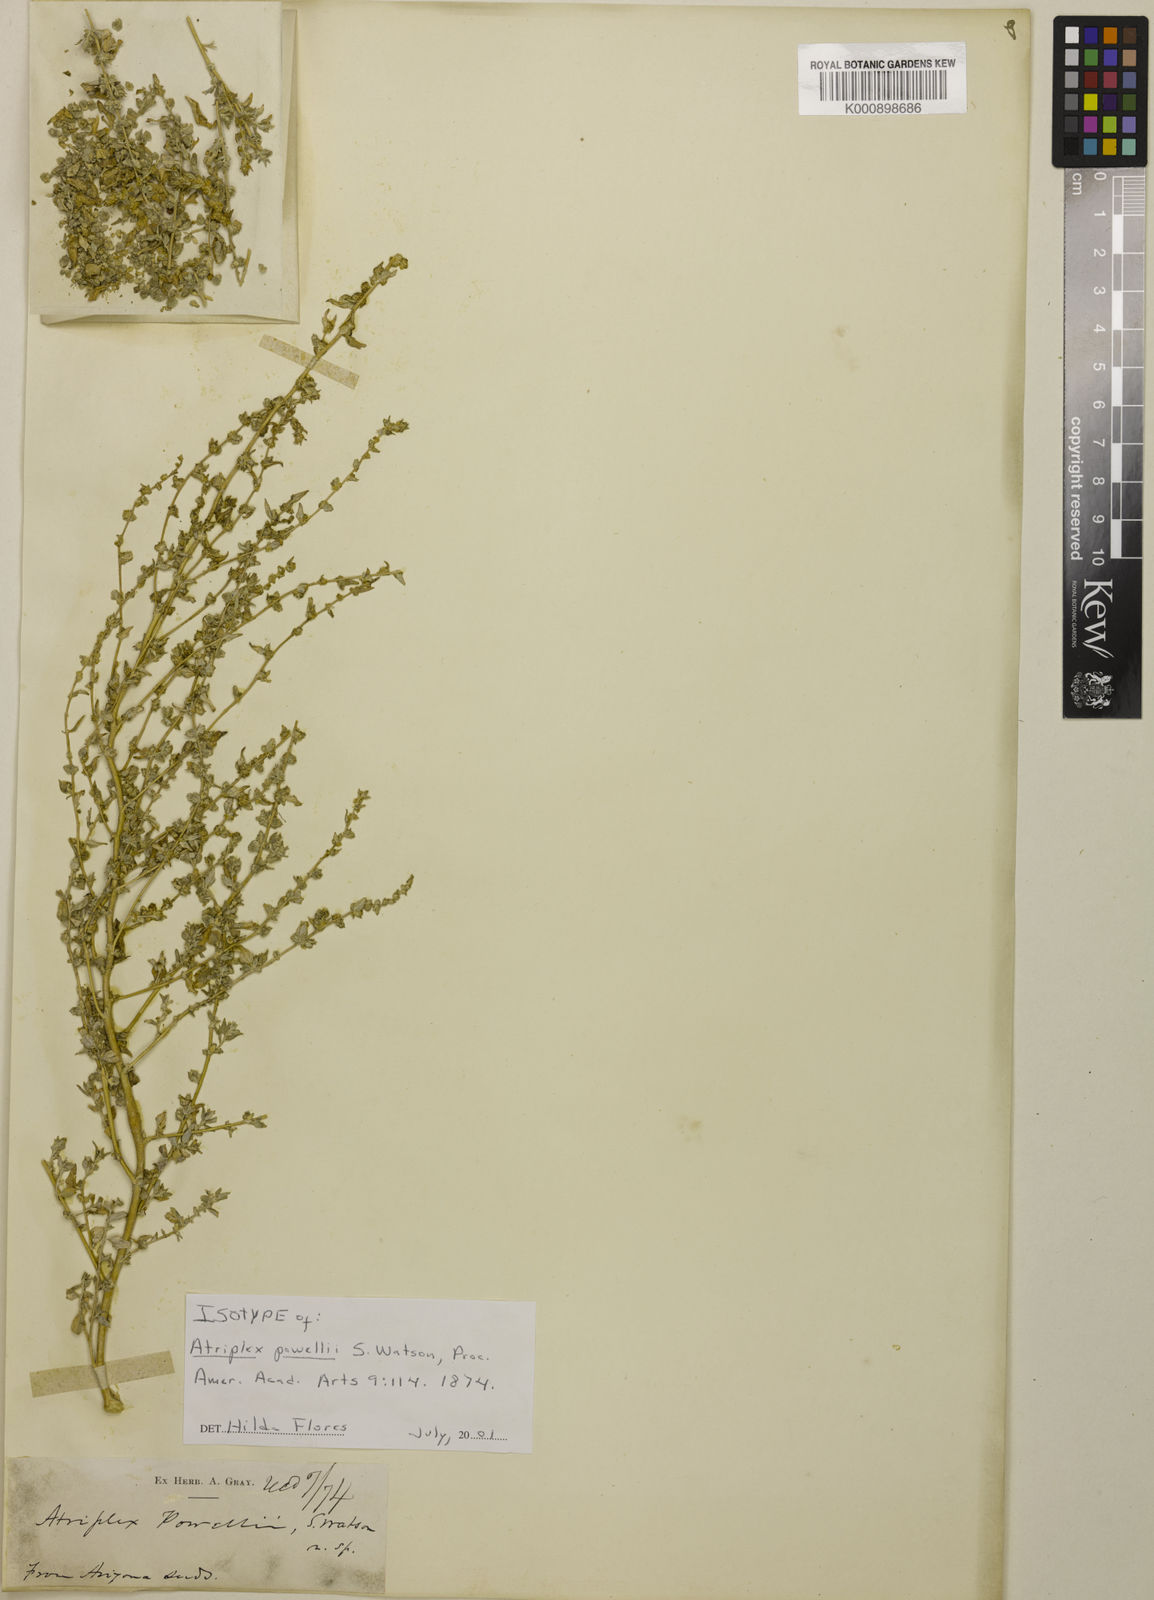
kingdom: Plantae
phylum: Tracheophyta
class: Magnoliopsida
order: Caryophyllales
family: Amaranthaceae
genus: Atriplex
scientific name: Atriplex powellii
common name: Powell's orache
